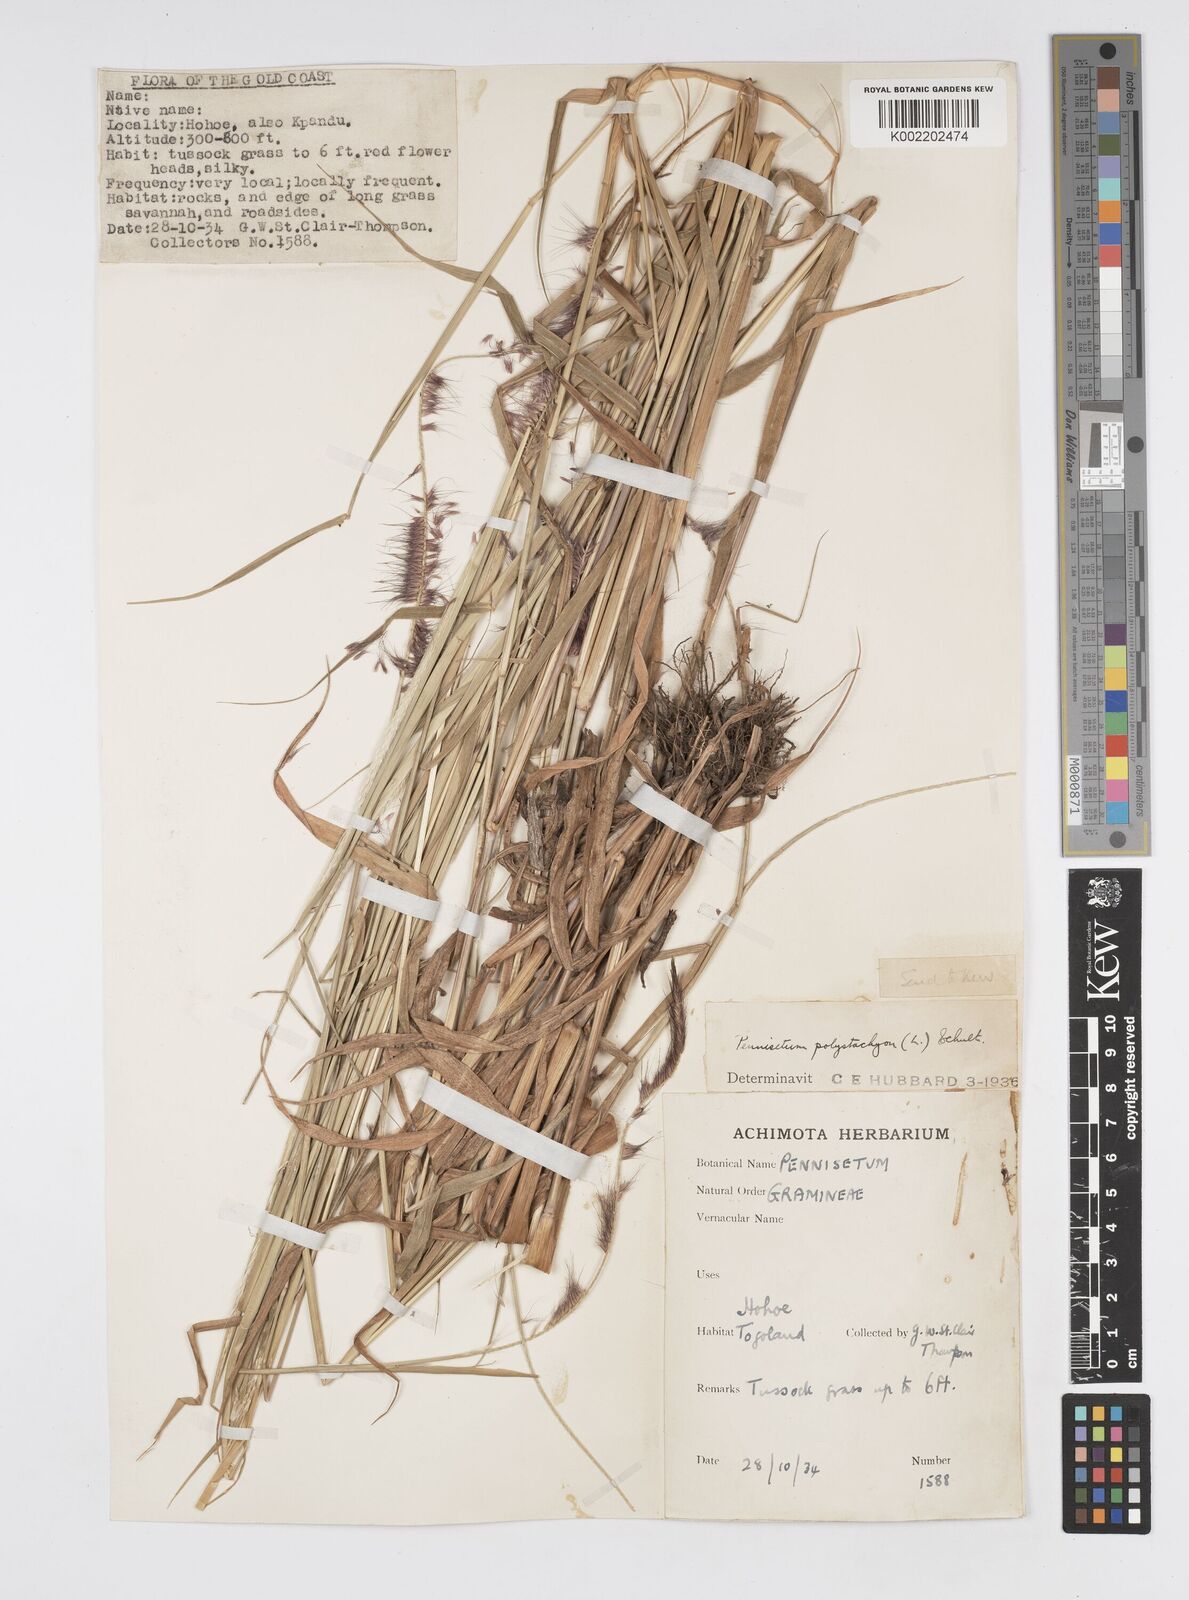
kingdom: Plantae
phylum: Tracheophyta
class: Liliopsida
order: Poales
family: Poaceae
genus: Setaria
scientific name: Setaria parviflora
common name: Knotroot bristle-grass
